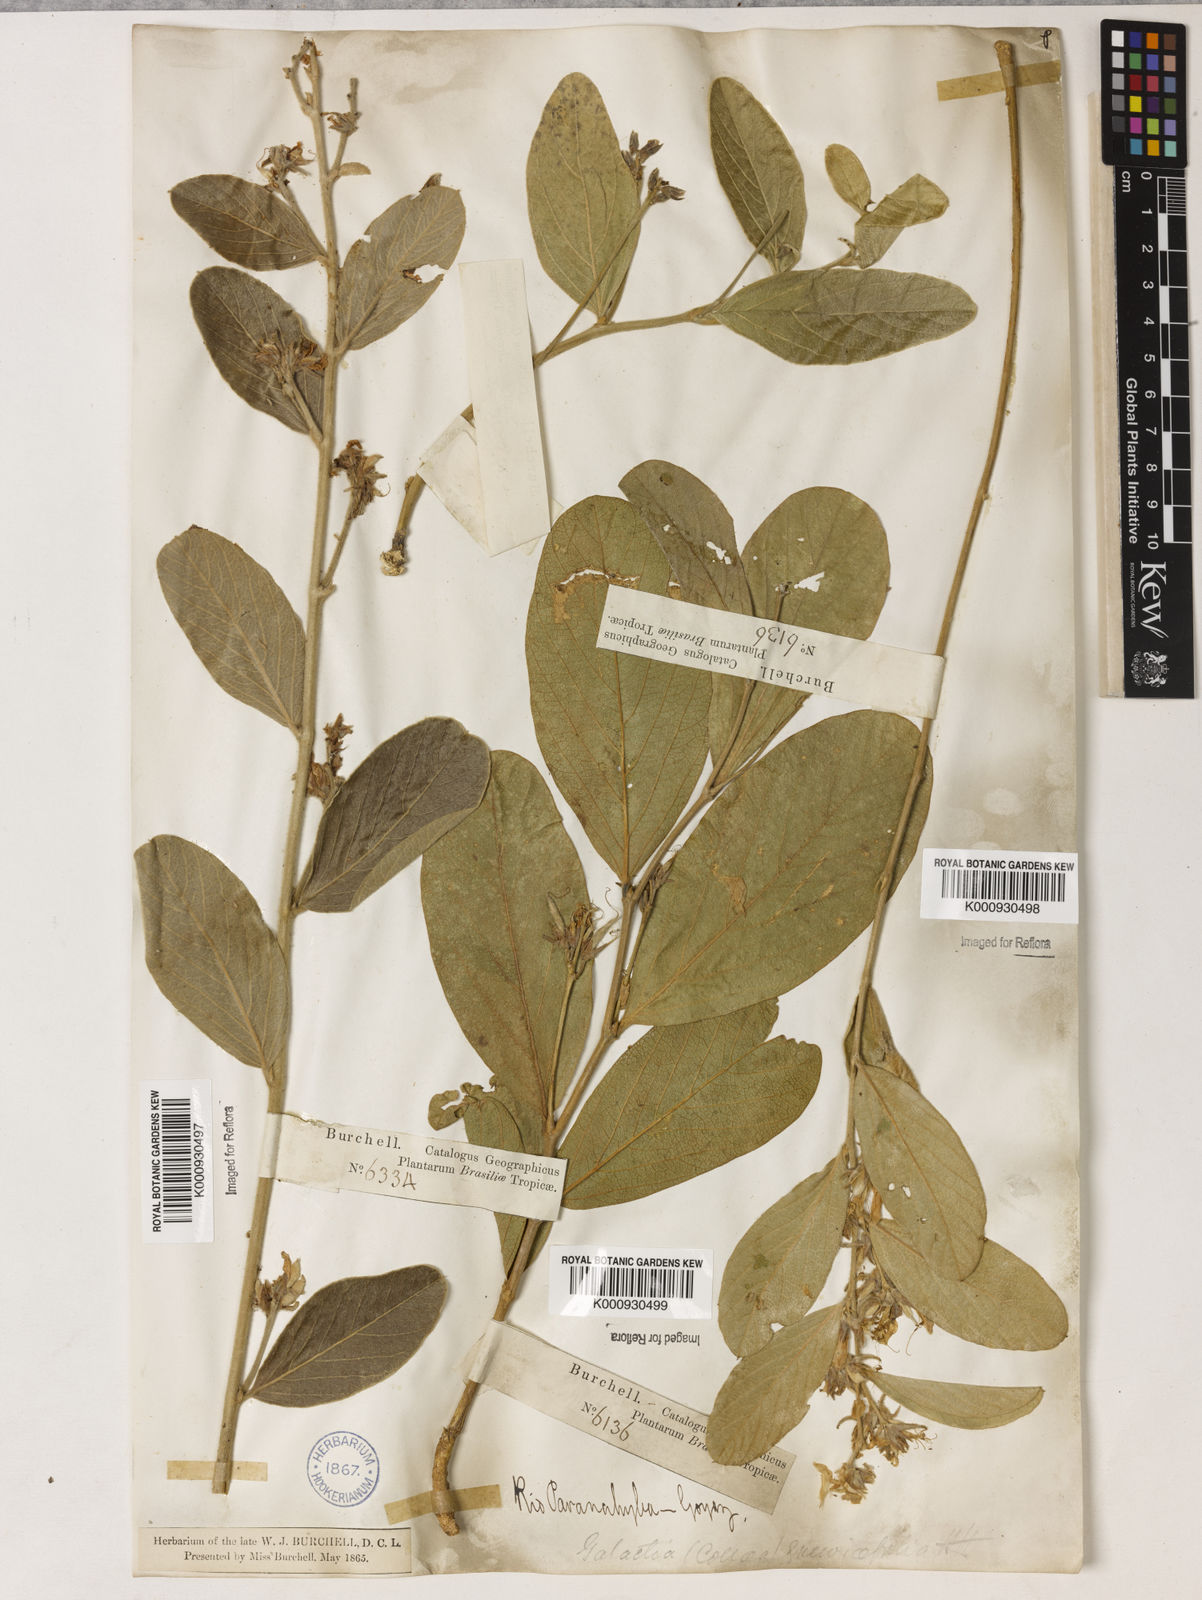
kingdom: Plantae
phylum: Tracheophyta
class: Magnoliopsida
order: Fabales
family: Fabaceae
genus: Galactia
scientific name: Galactia
